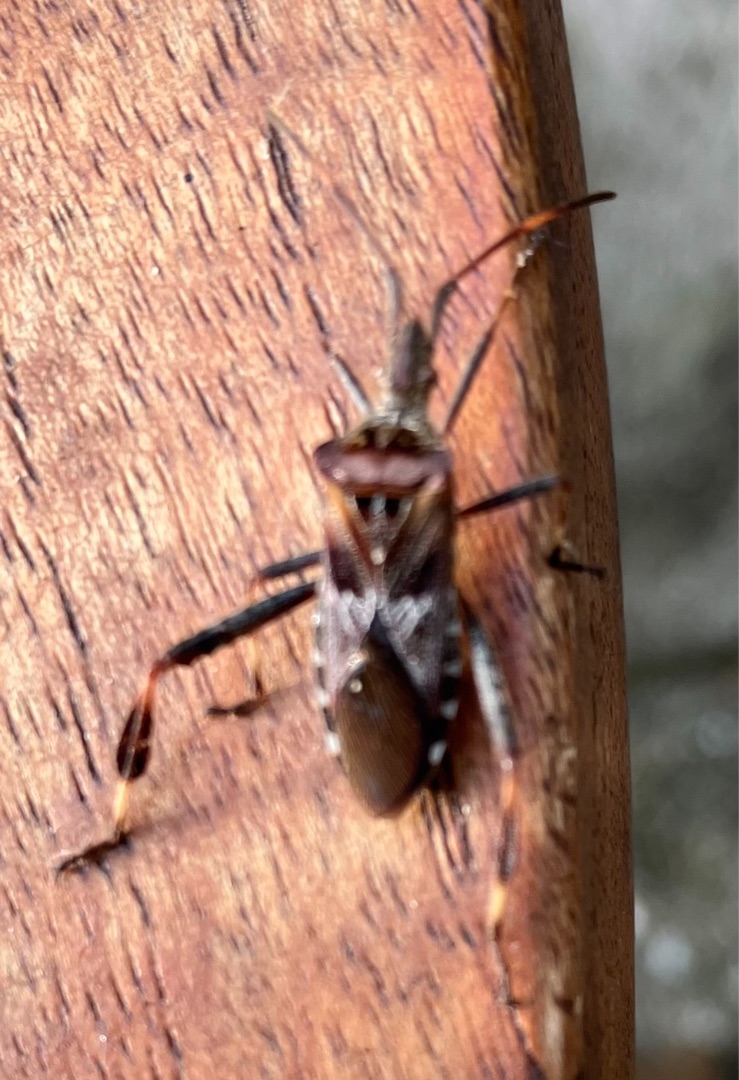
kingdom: Animalia
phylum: Arthropoda
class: Insecta
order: Hemiptera
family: Coreidae
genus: Leptoglossus
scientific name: Leptoglossus occidentalis
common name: Amerikansk fyrretæge
